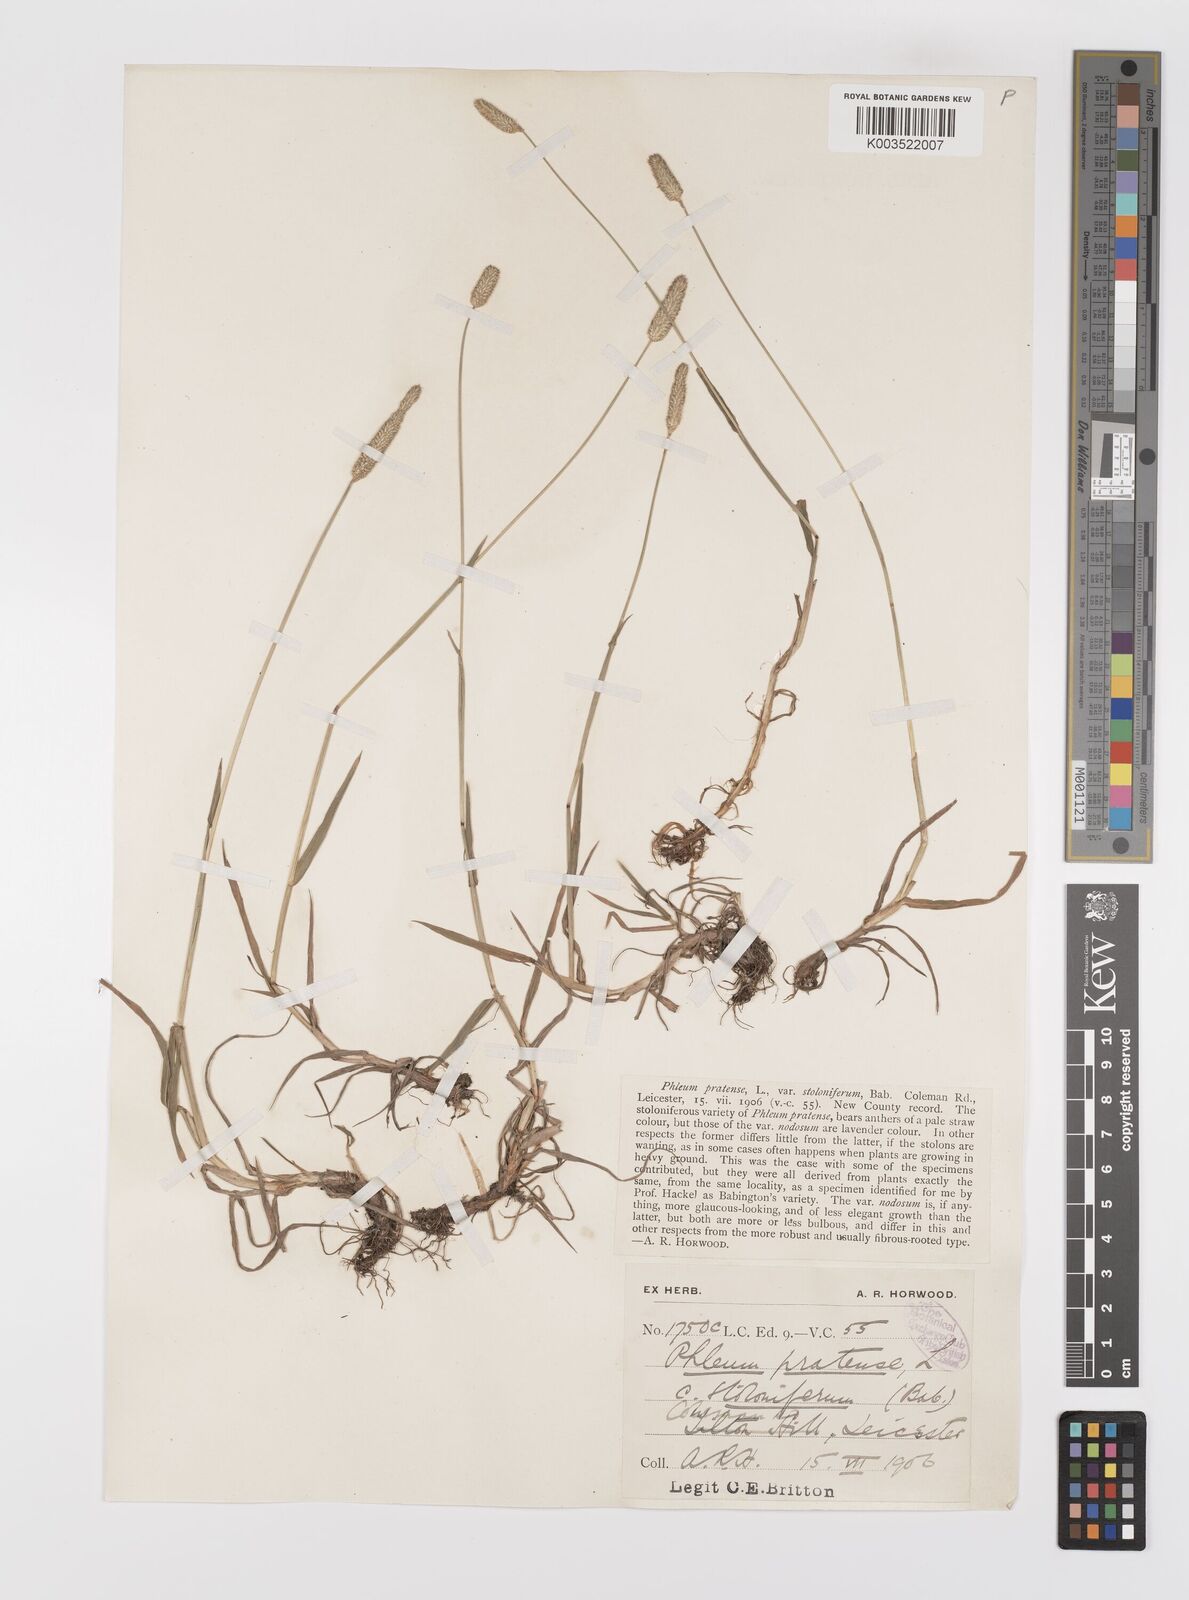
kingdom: Plantae
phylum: Tracheophyta
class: Liliopsida
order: Poales
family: Poaceae
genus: Phleum
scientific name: Phleum bertolonii
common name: Smaller cat's-tail
